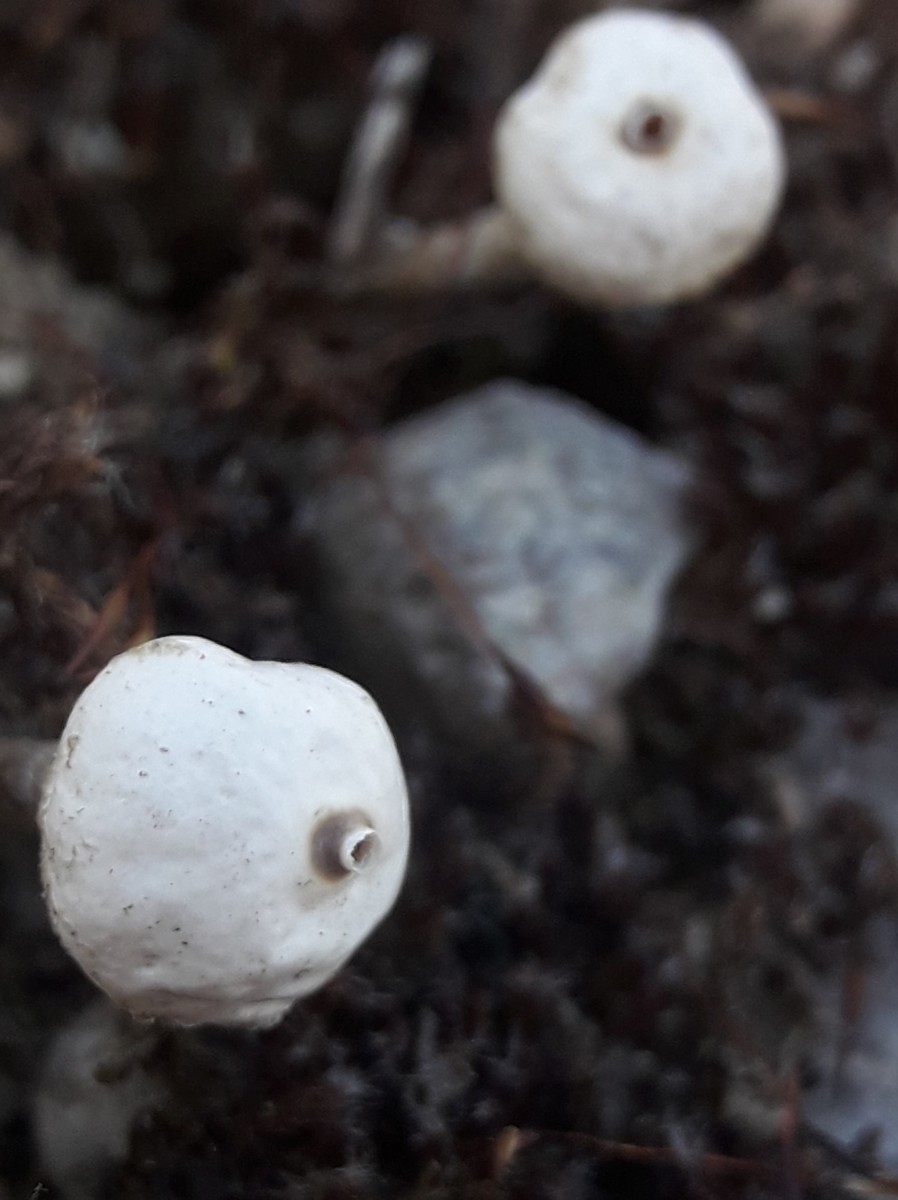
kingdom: Fungi
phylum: Basidiomycota
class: Agaricomycetes
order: Agaricales
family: Agaricaceae
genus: Tulostoma
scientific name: Tulostoma brumale
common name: vinter-stilkbovist
